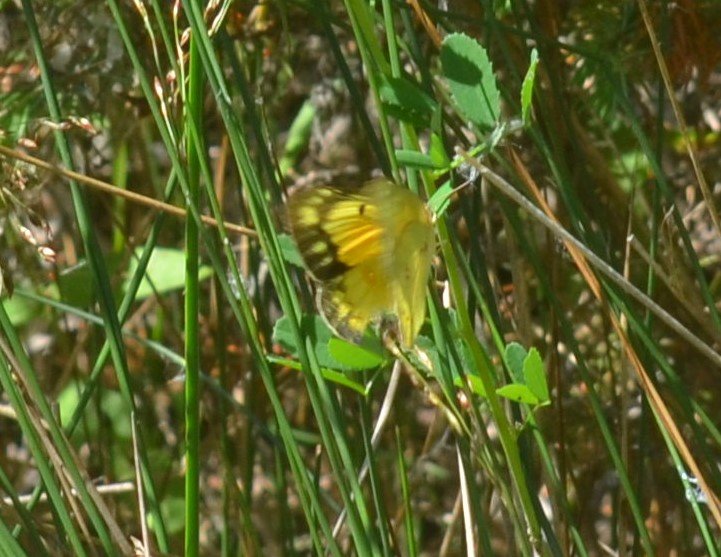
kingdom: Animalia
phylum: Arthropoda
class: Insecta
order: Lepidoptera
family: Pieridae
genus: Colias
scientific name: Colias eurytheme
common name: Orange Sulphur
